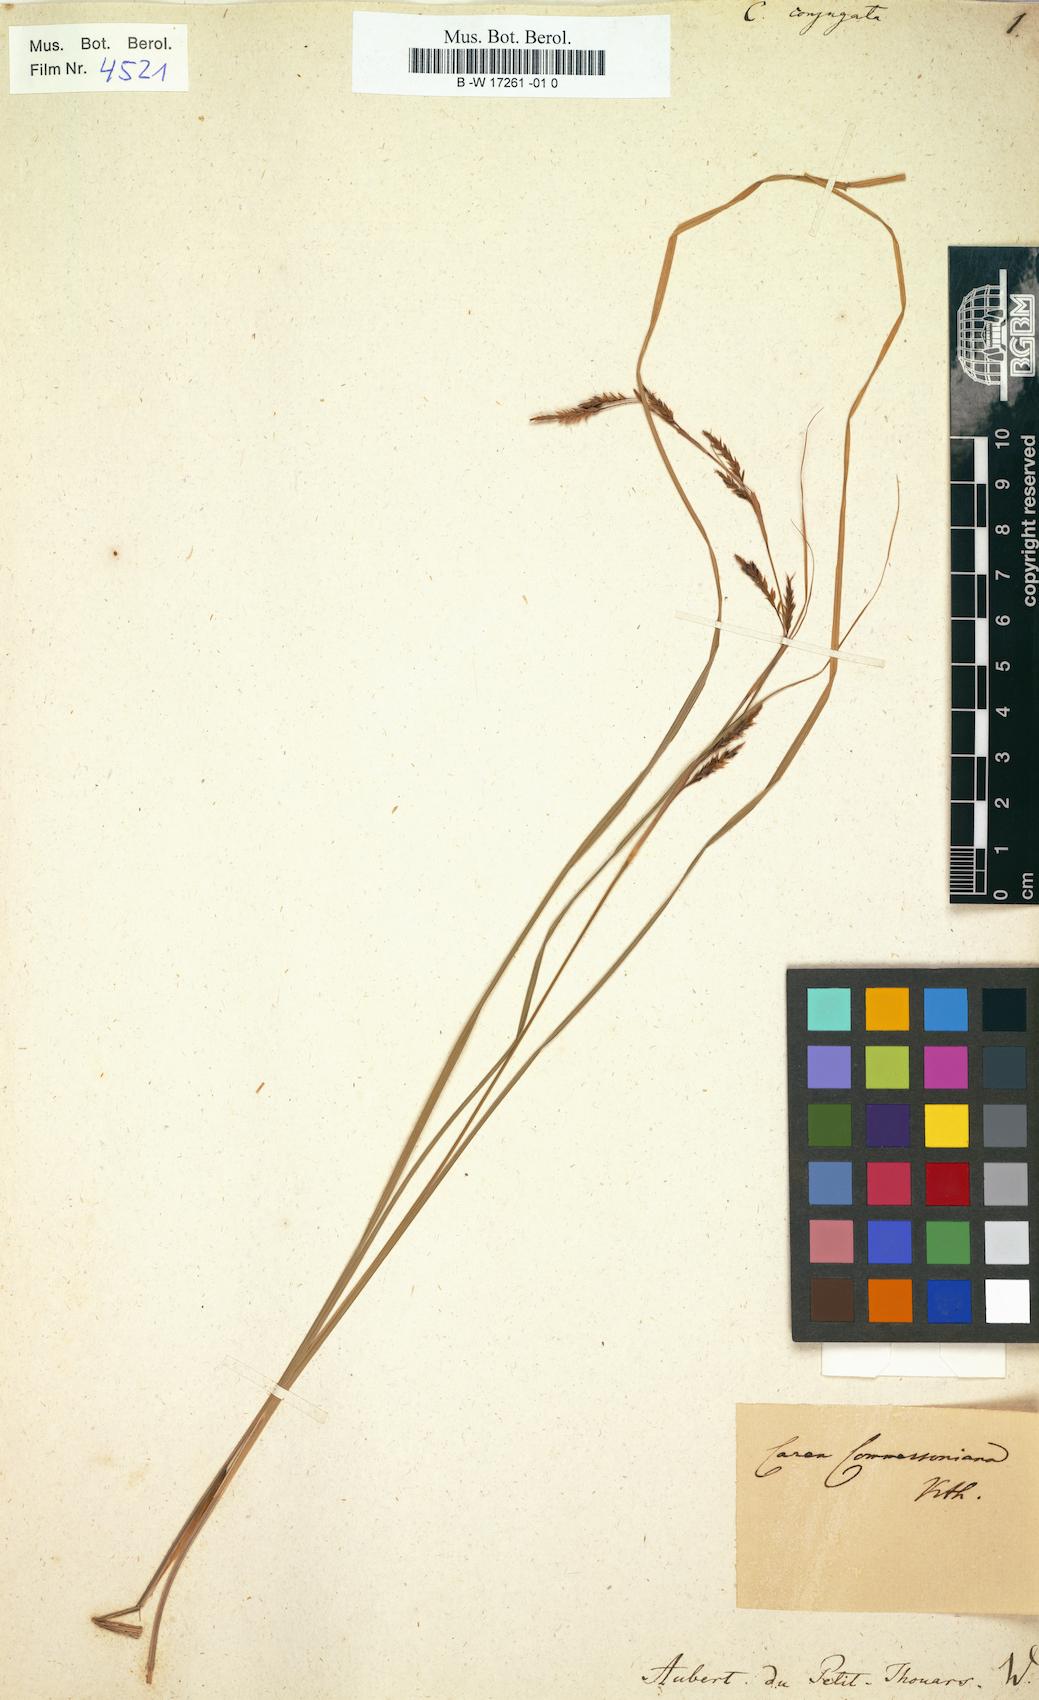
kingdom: Plantae
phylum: Tracheophyta
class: Liliopsida
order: Poales
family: Cyperaceae
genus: Carex
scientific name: Carex brunnea
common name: Greater brown sedge
